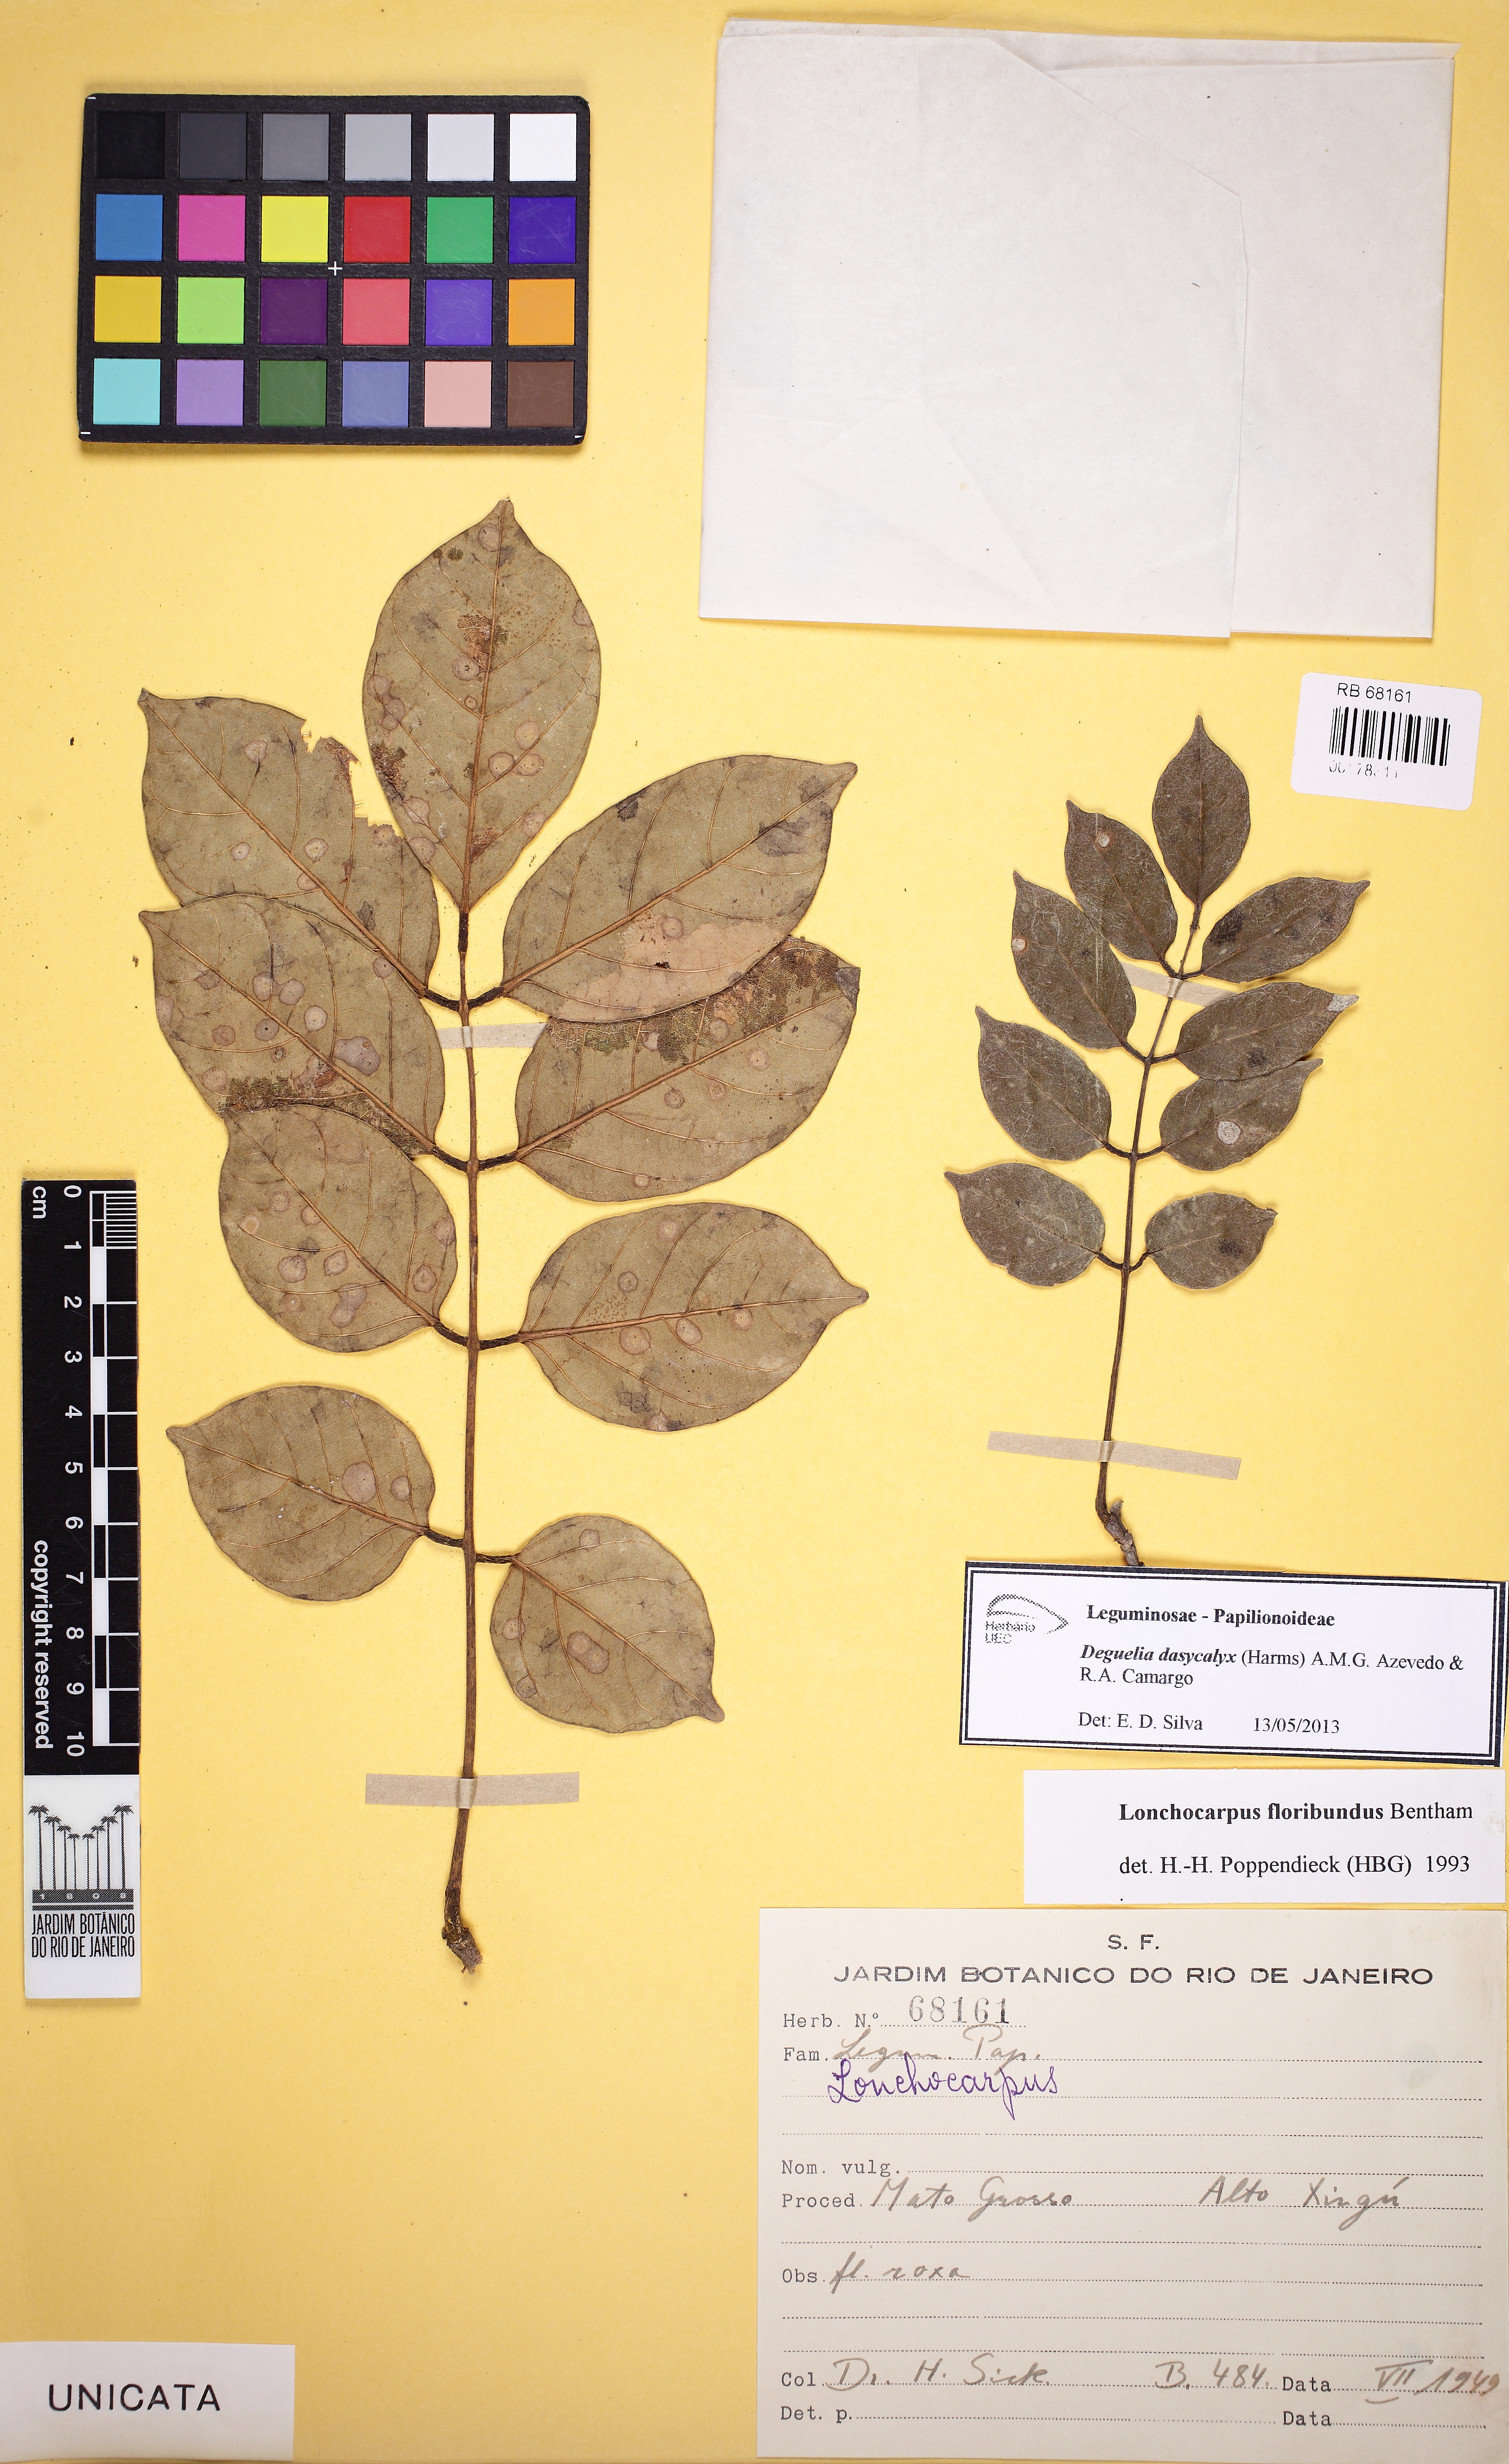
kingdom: Plantae
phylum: Tracheophyta
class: Magnoliopsida
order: Fabales
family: Fabaceae
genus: Deguelia
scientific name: Deguelia nitidula
